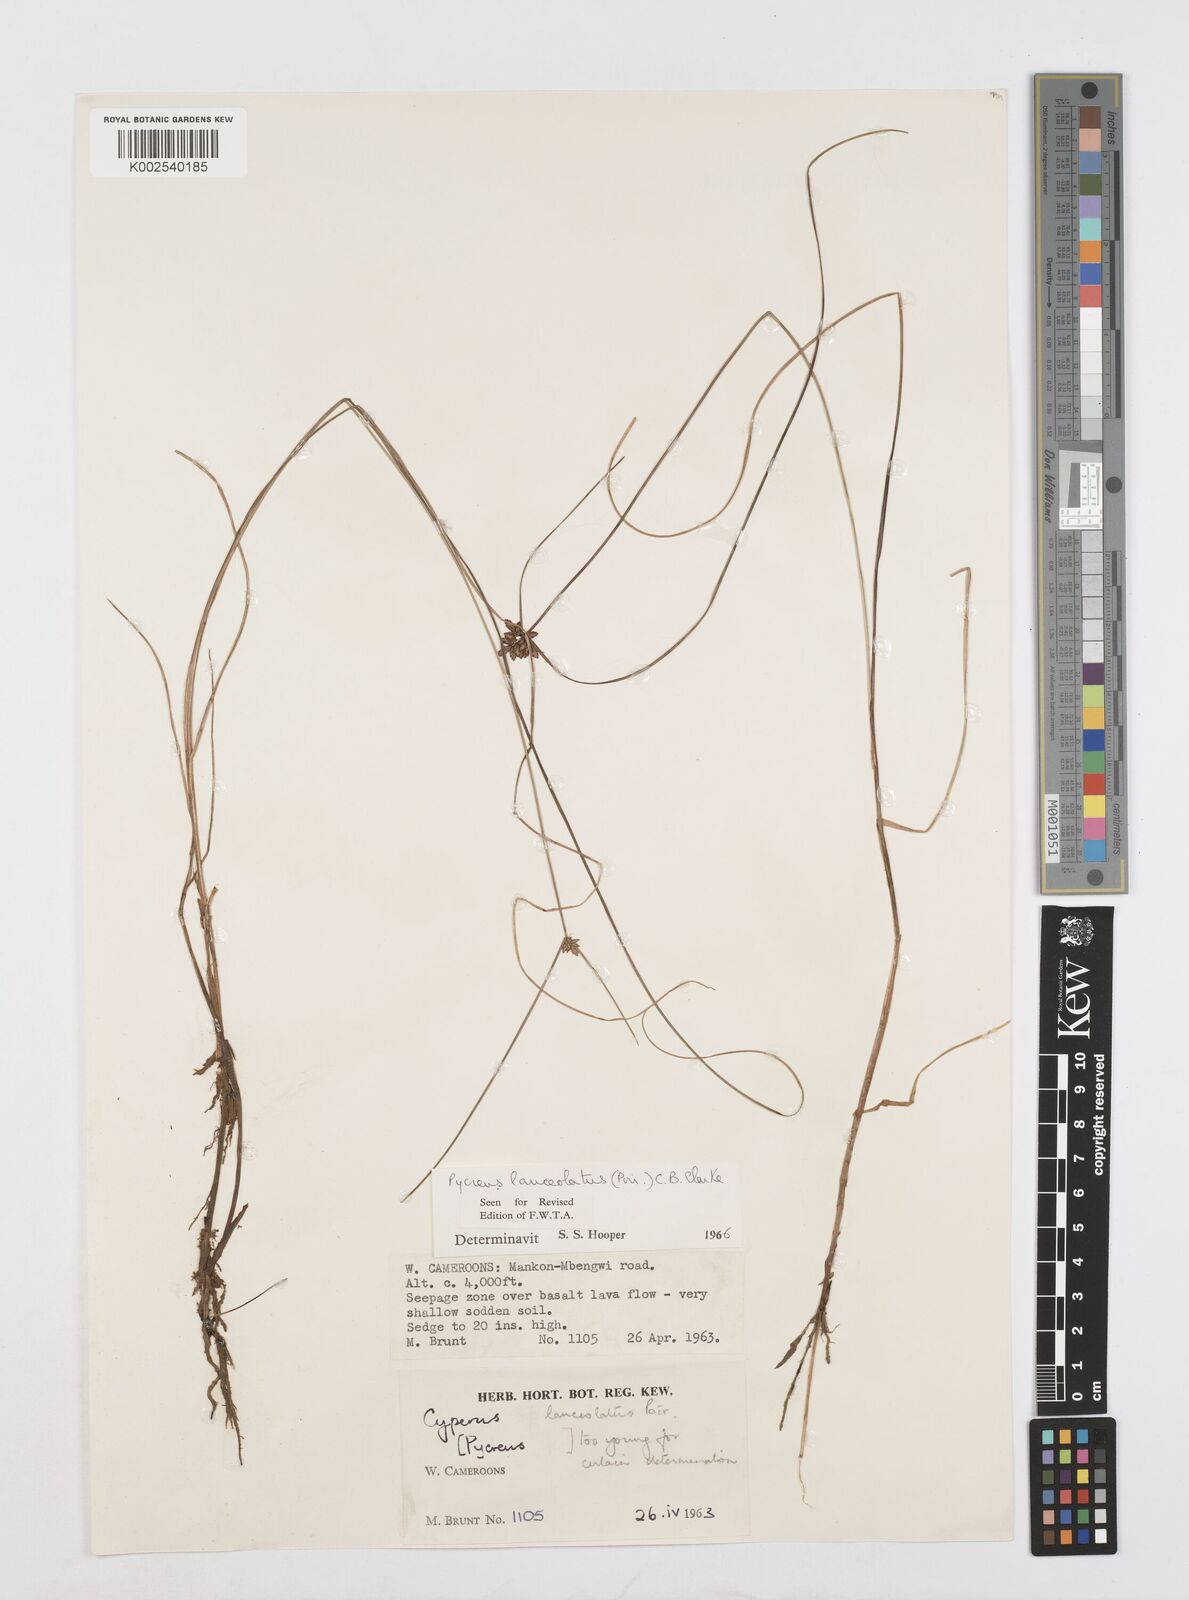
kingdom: Plantae
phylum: Tracheophyta
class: Liliopsida
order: Poales
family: Cyperaceae
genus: Cyperus
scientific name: Cyperus
